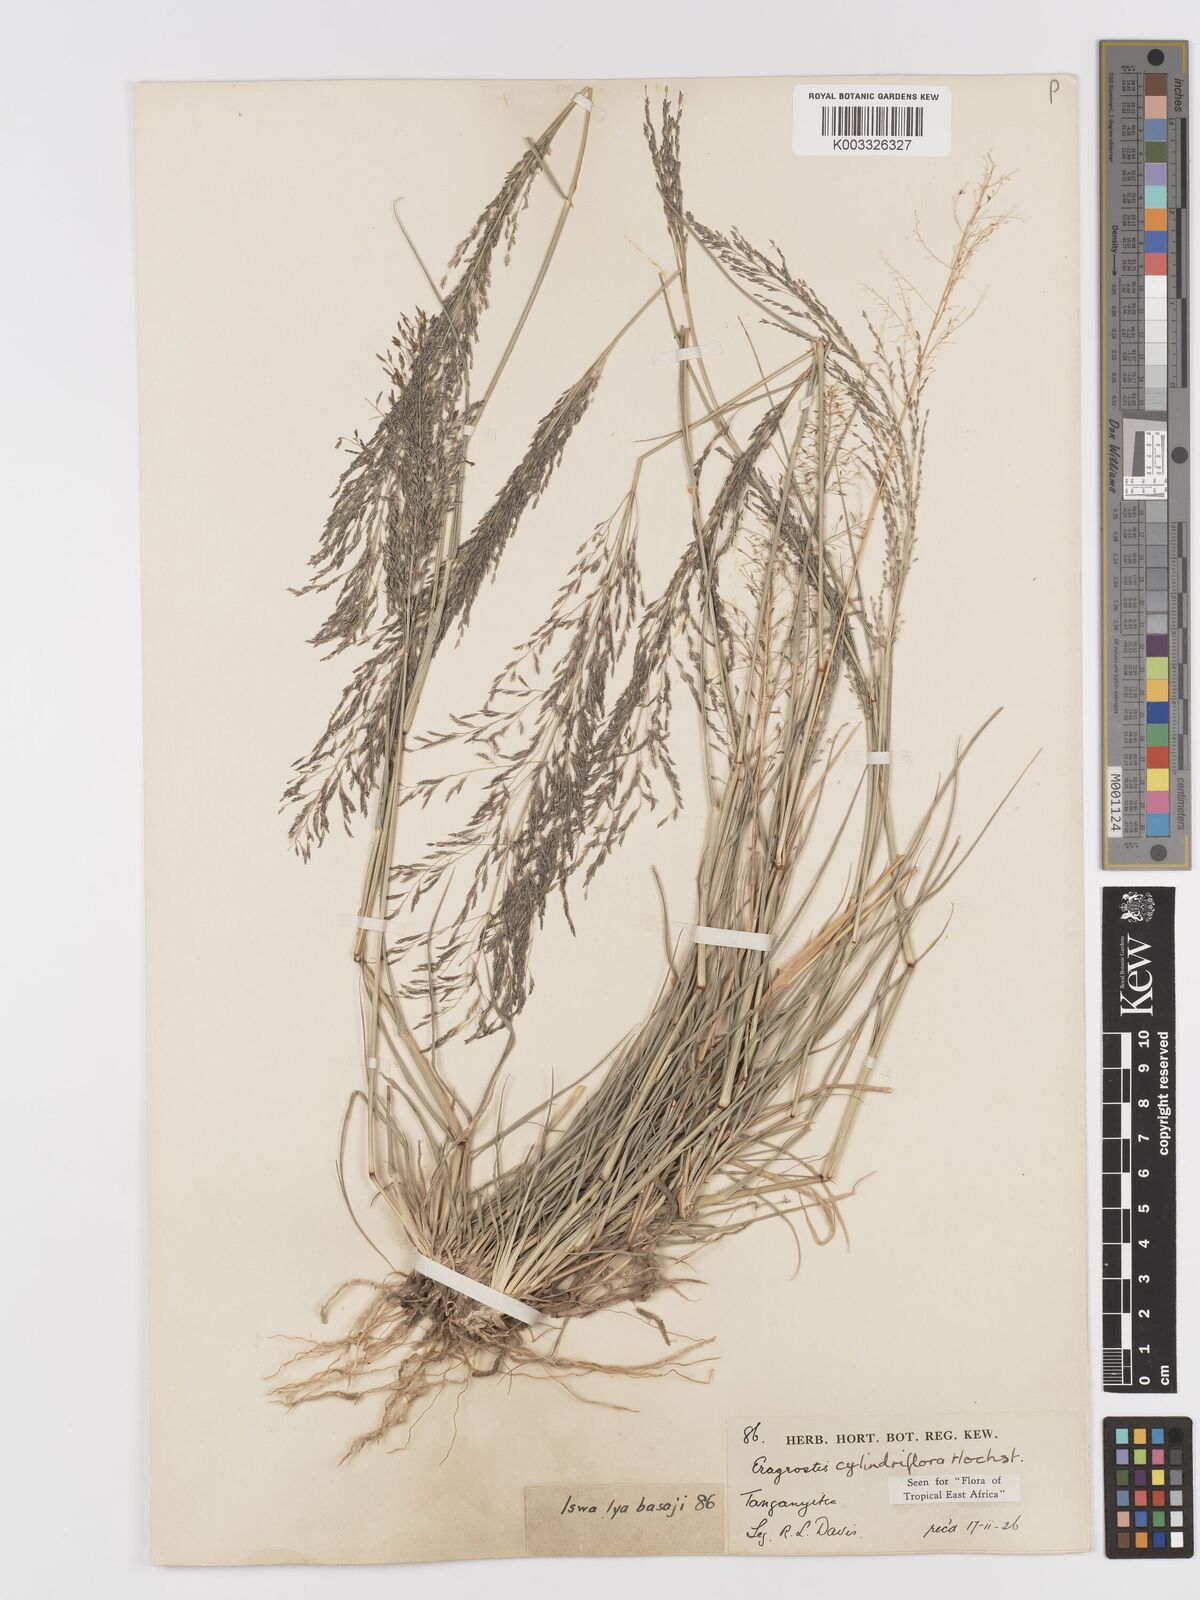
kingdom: Plantae
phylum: Tracheophyta
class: Liliopsida
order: Poales
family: Poaceae
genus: Eragrostis
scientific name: Eragrostis cylindriflora
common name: Cylinderflower lovegrass
